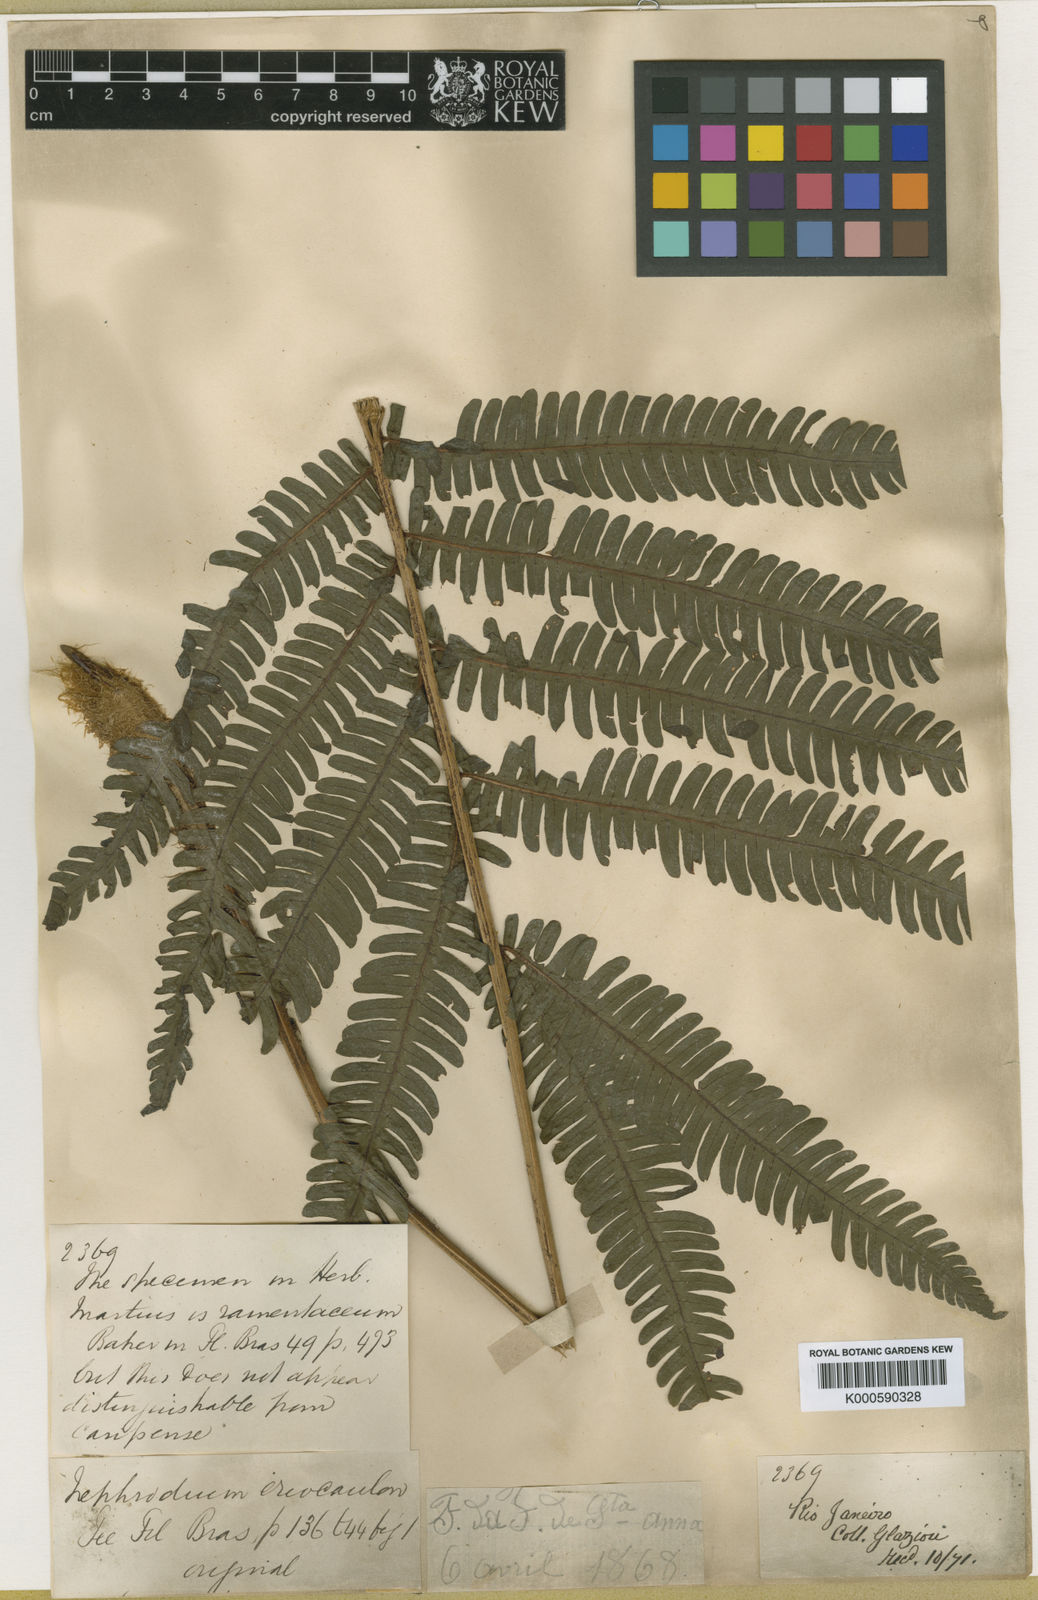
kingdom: Plantae
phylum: Tracheophyta
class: Polypodiopsida
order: Polypodiales
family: Dryopteridaceae
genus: Ctenitis
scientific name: Ctenitis distans
